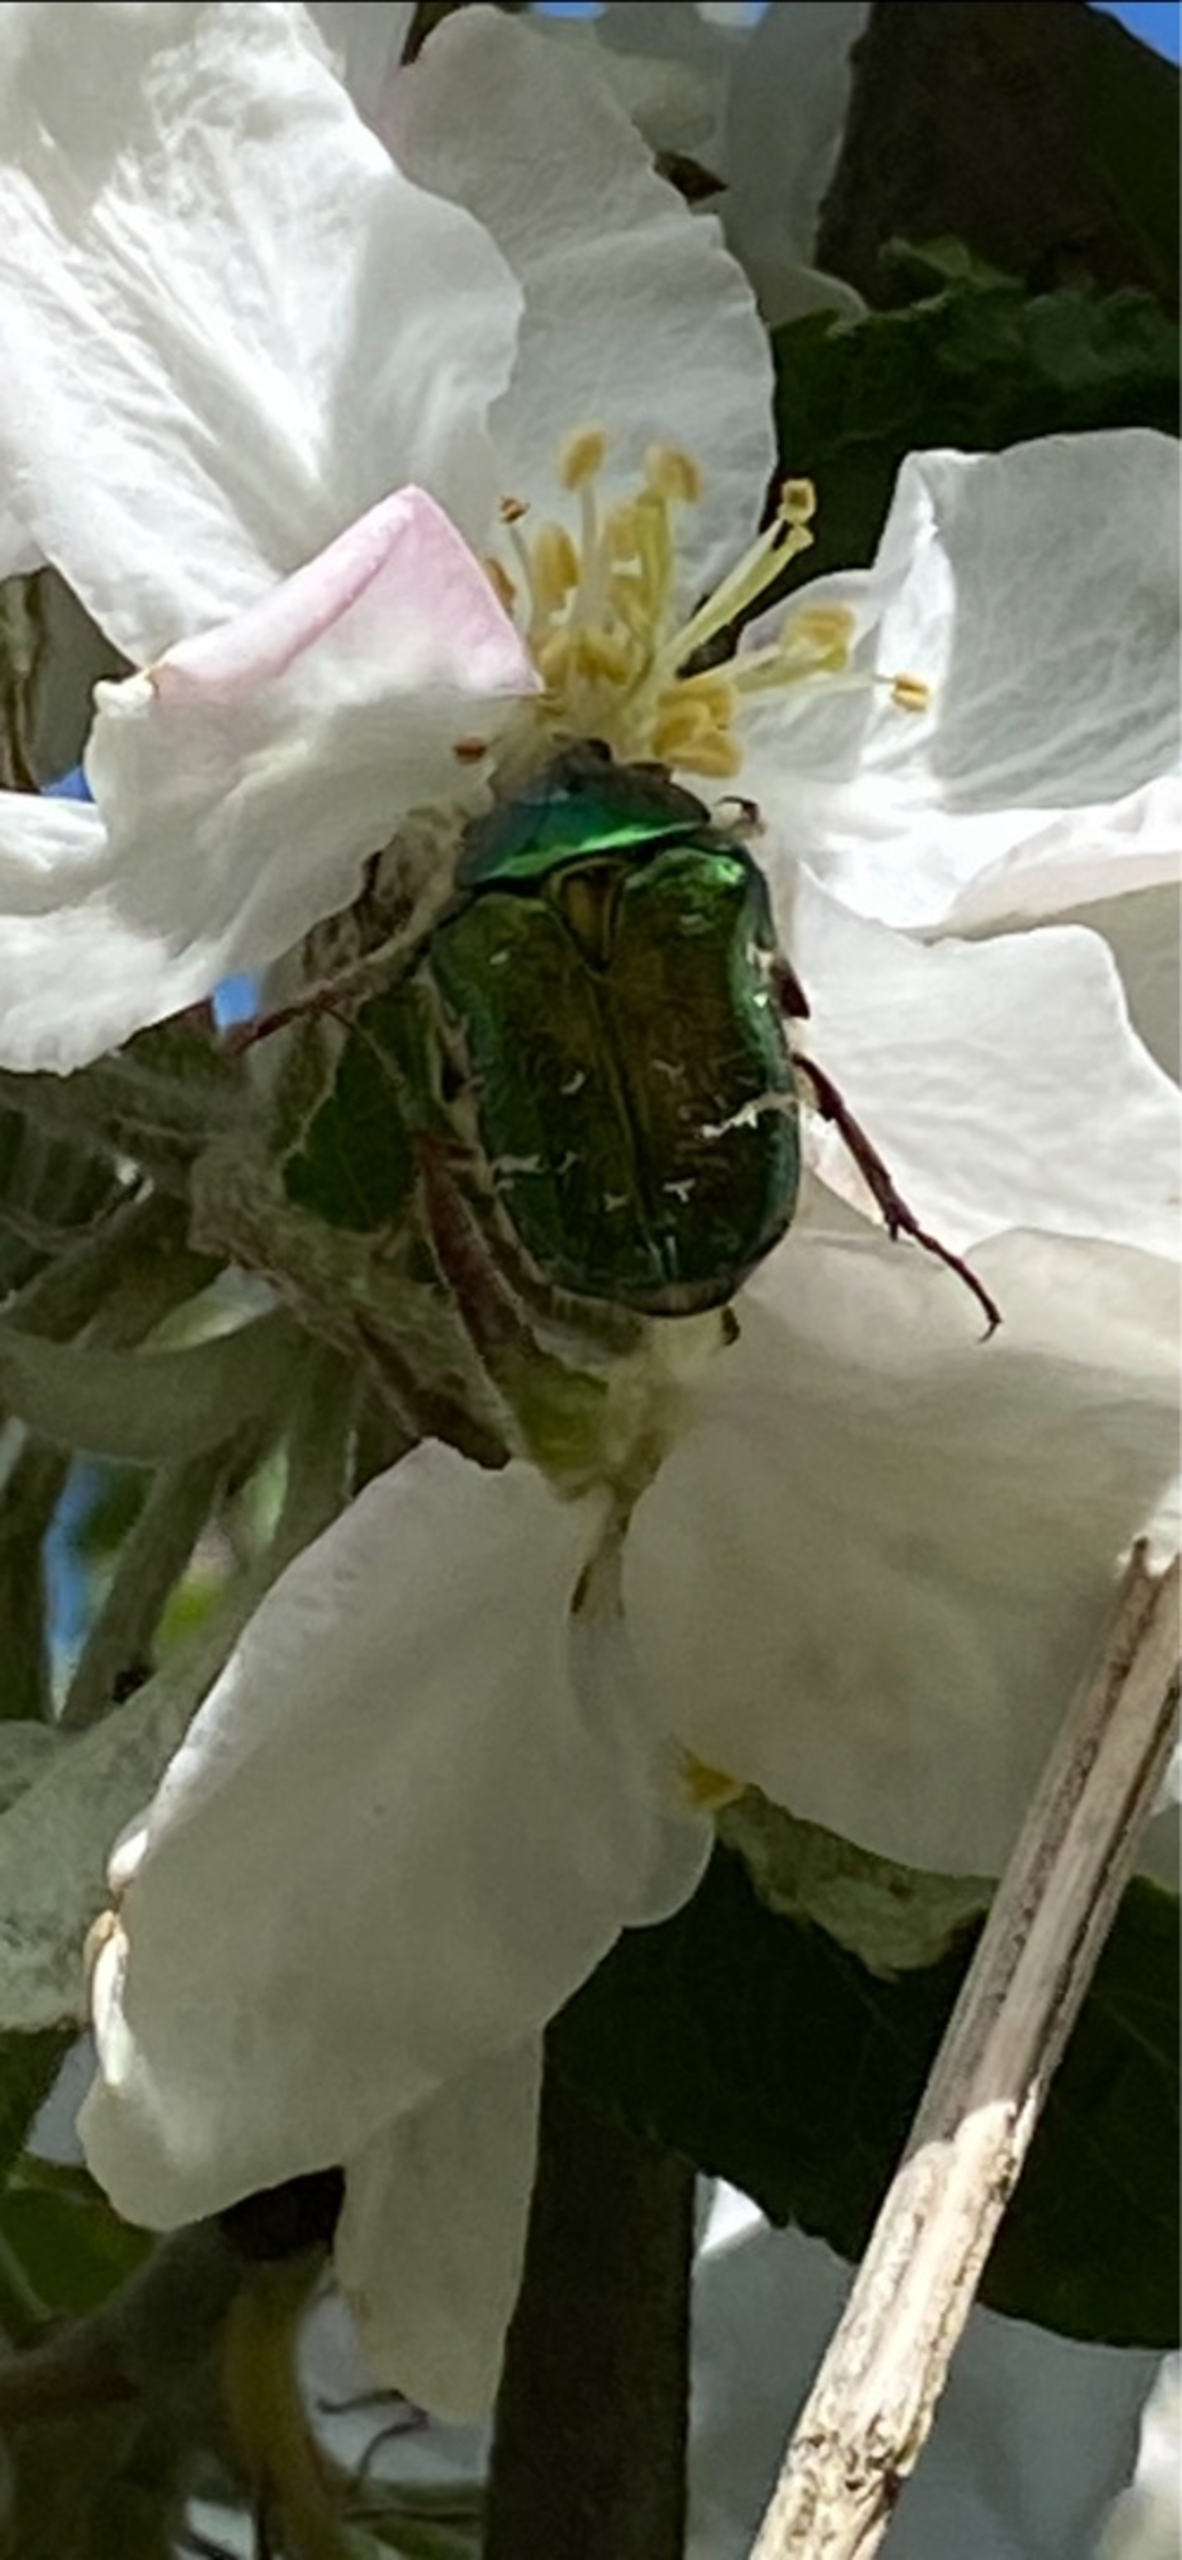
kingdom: Animalia
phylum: Arthropoda
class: Insecta
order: Coleoptera
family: Scarabaeidae
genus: Cetonia
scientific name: Cetonia aurata
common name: Grøn guldbasse
